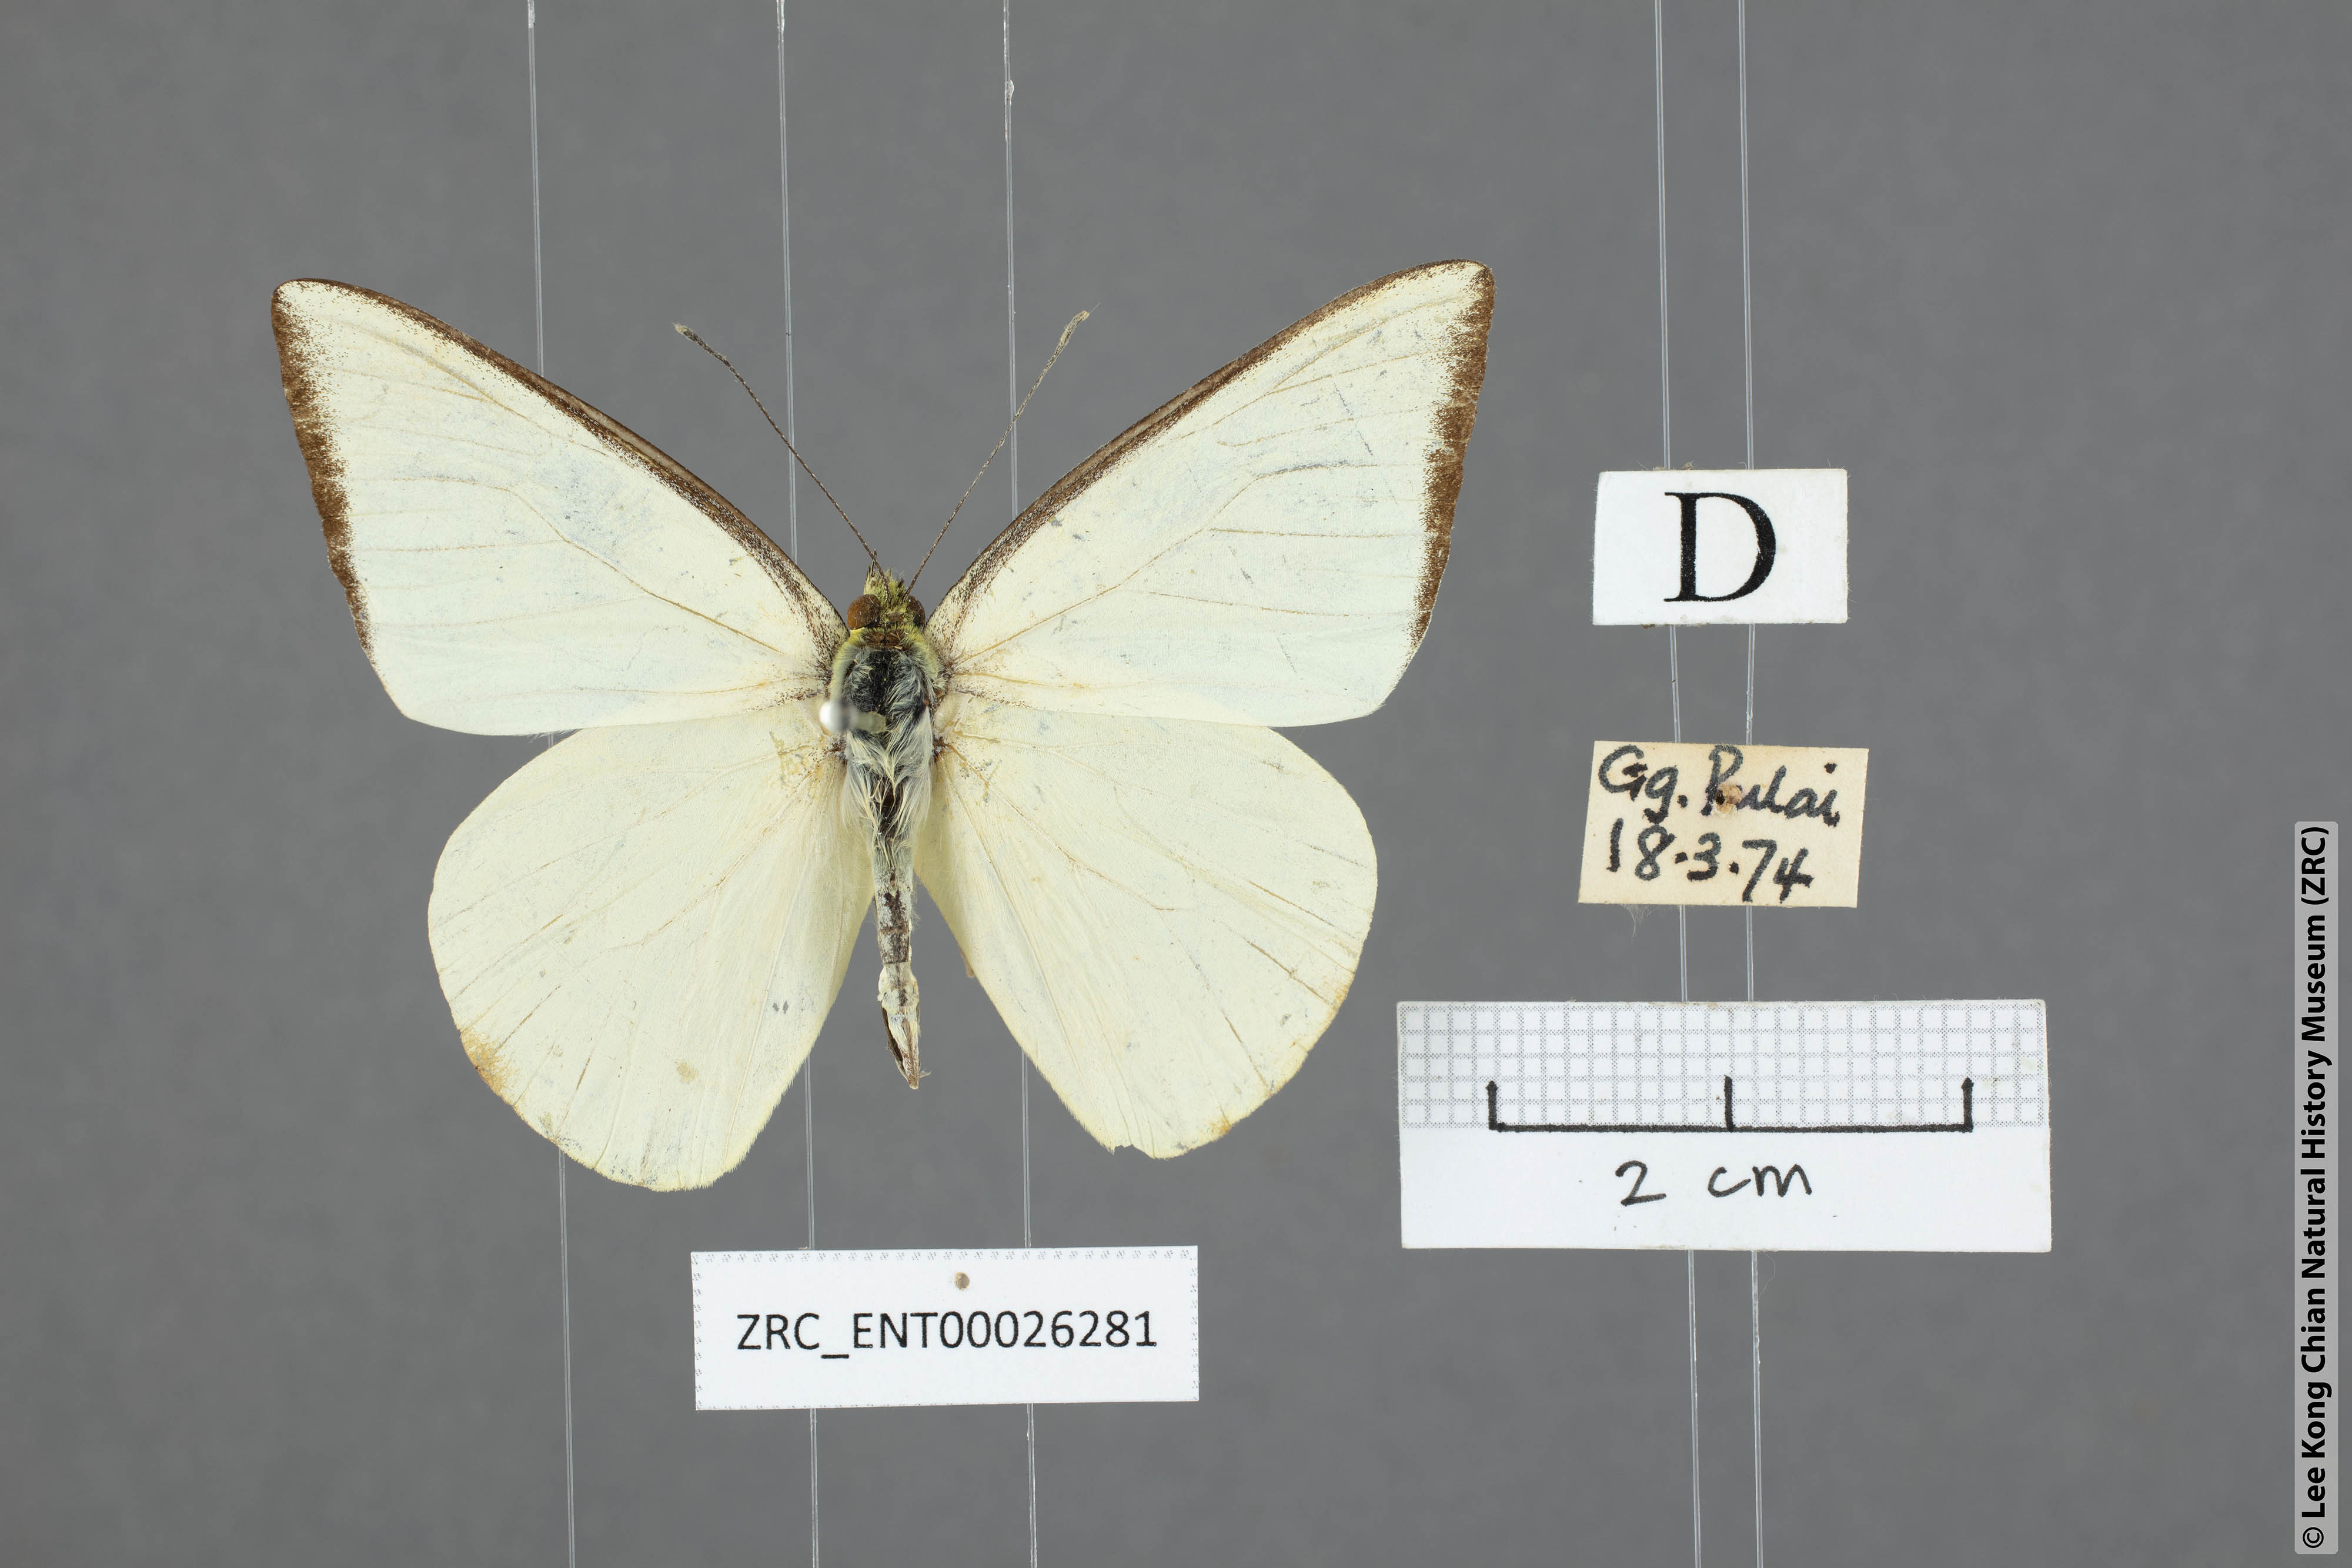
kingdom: Animalia
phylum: Arthropoda
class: Insecta
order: Lepidoptera
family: Pieridae
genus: Saletara
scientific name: Saletara liberia
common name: Pointed albatross
